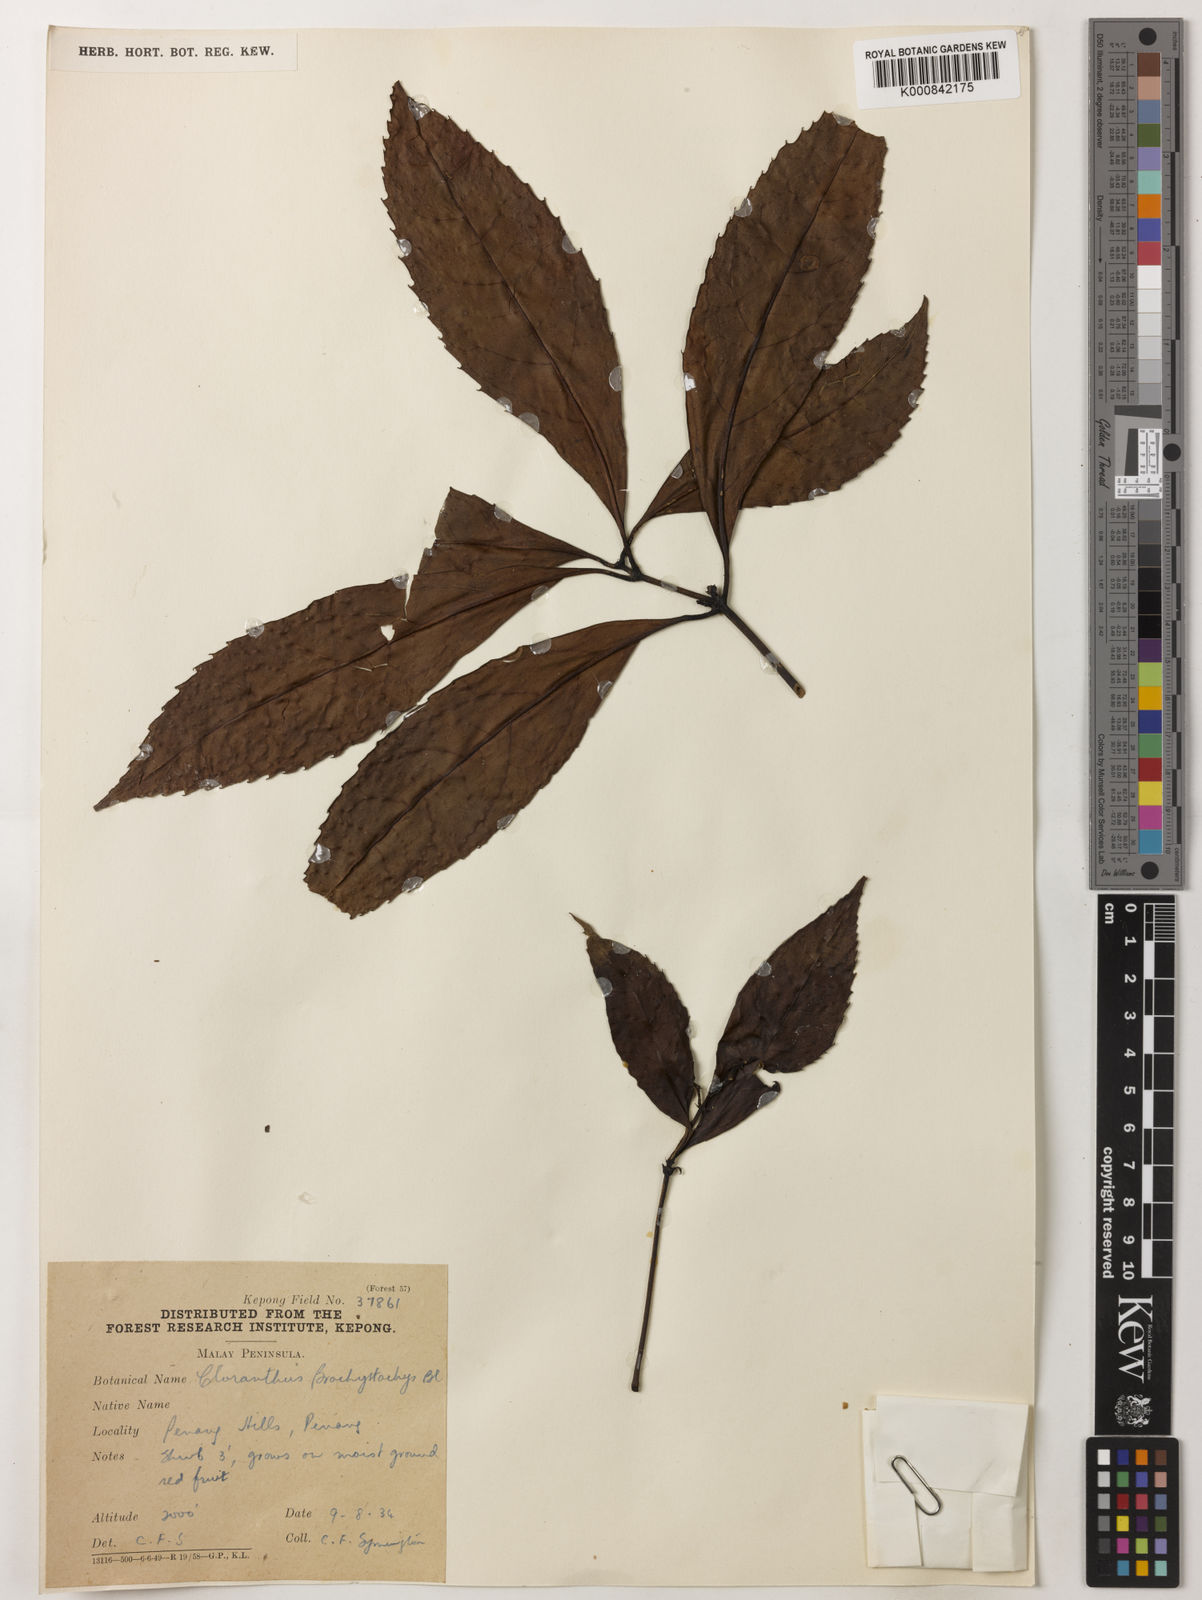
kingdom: Plantae
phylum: Tracheophyta
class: Magnoliopsida
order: Chloranthales
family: Chloranthaceae
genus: Sarcandra
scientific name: Sarcandra glabra
